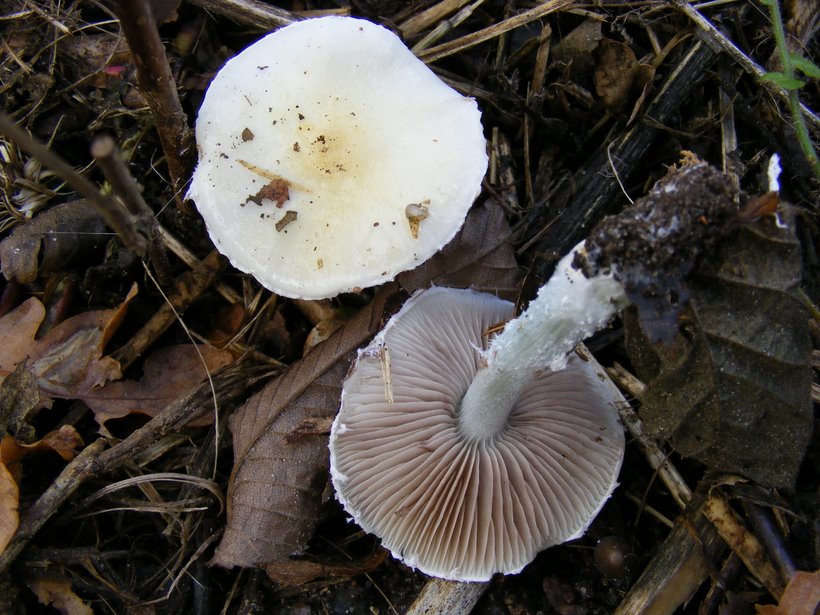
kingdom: Fungi
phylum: Basidiomycota
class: Agaricomycetes
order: Agaricales
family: Strophariaceae
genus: Stropharia
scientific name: Stropharia cyanea
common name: blågrøn bredblad
